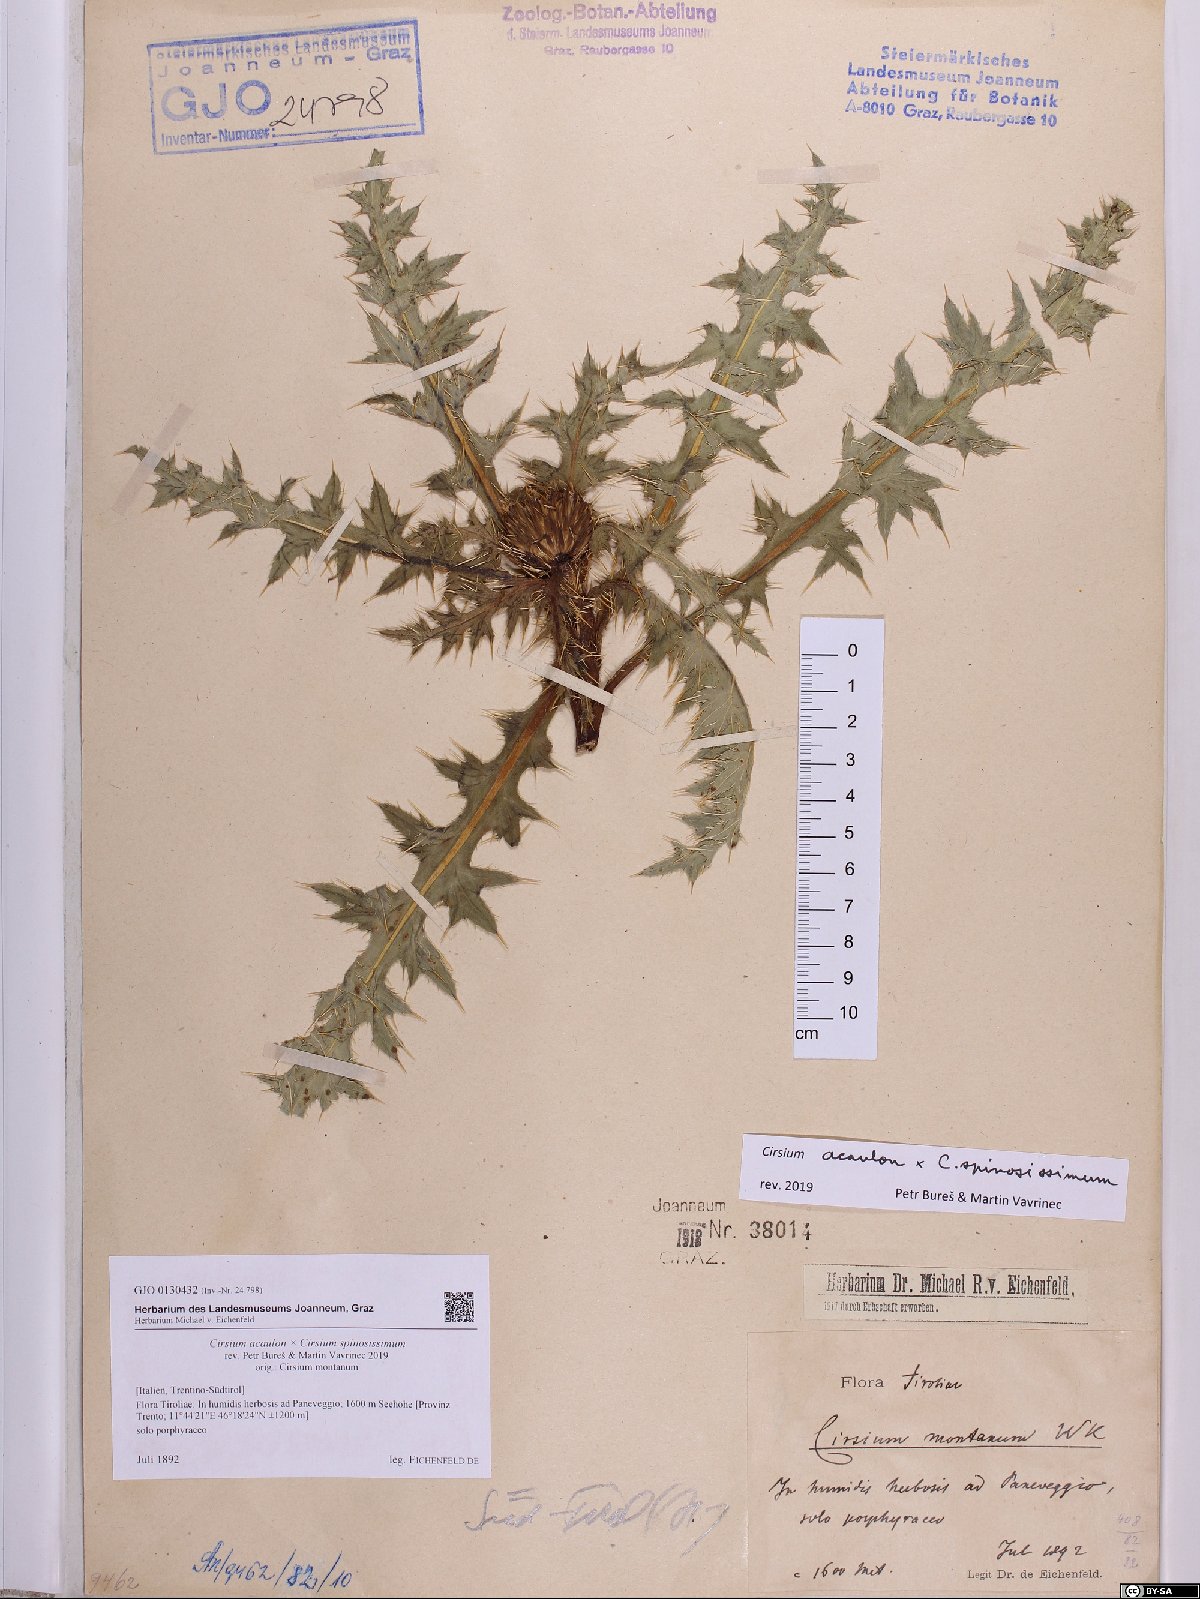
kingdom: Plantae
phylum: Tracheophyta
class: Magnoliopsida
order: Asterales
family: Asteraceae
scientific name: Asteraceae
